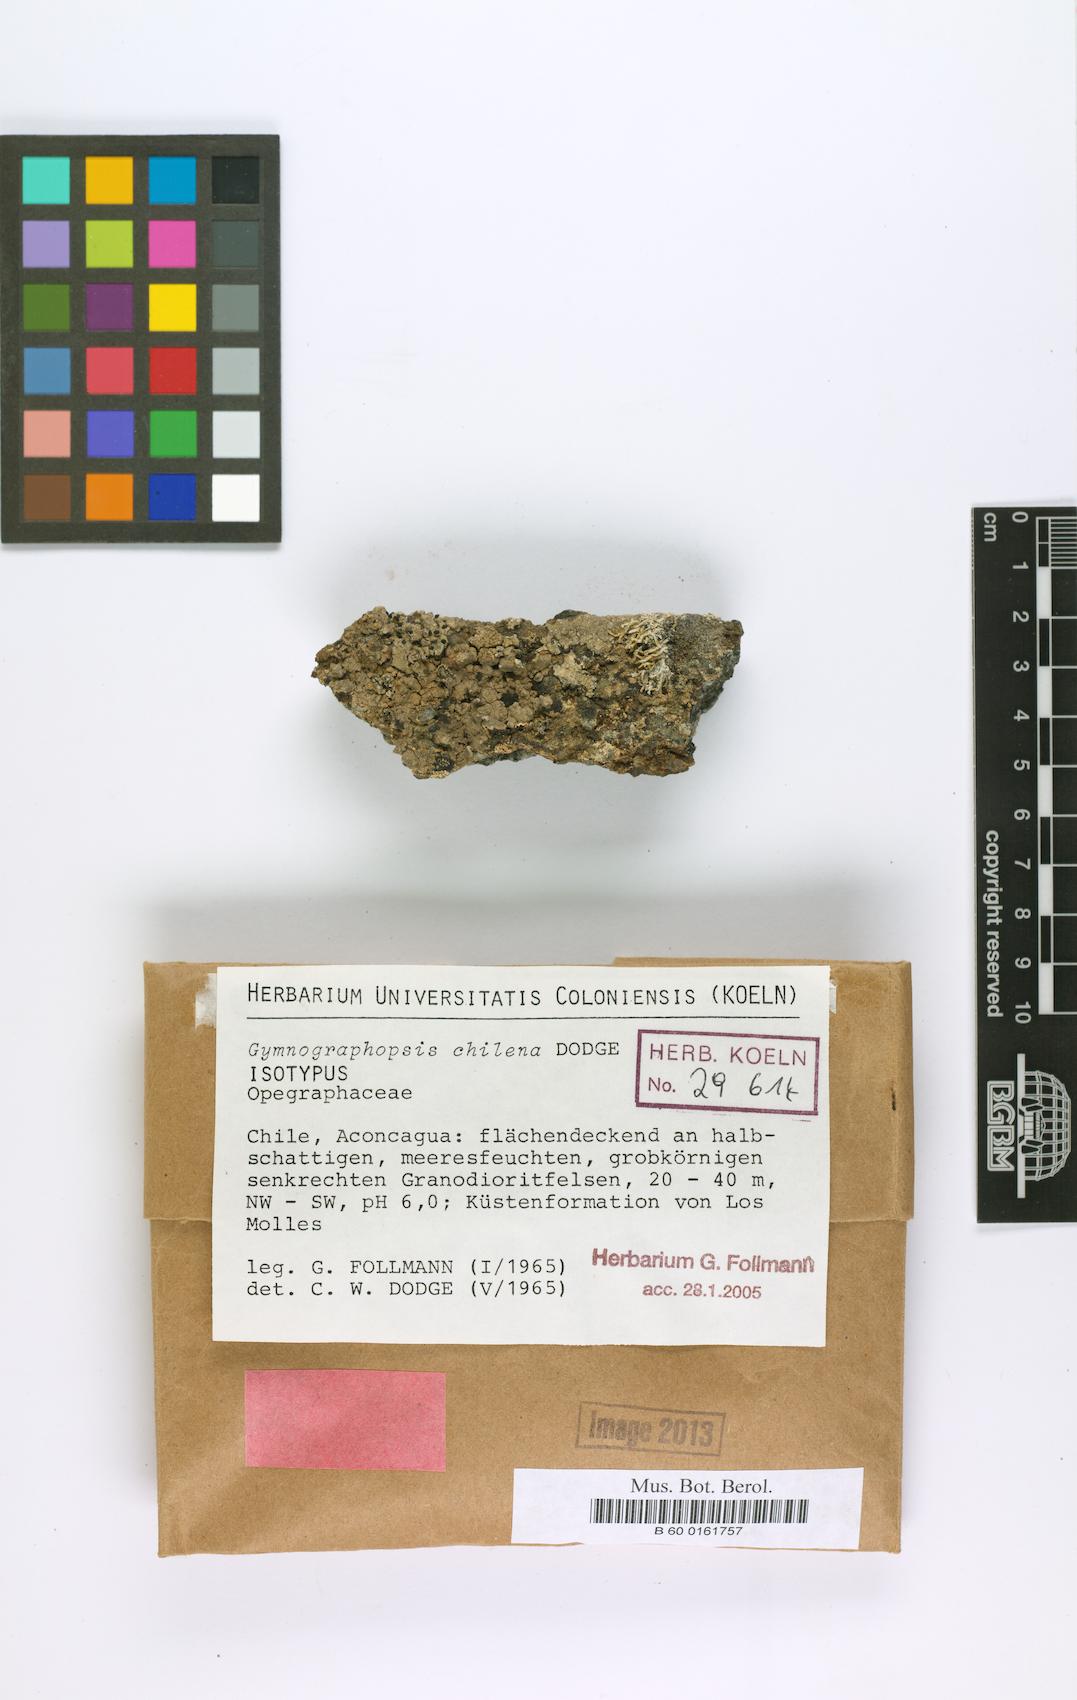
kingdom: Fungi
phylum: Ascomycota
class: Lecanoromycetes
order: Ostropales
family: Graphidaceae
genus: Gymnographopsis
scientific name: Gymnographopsis chilena
